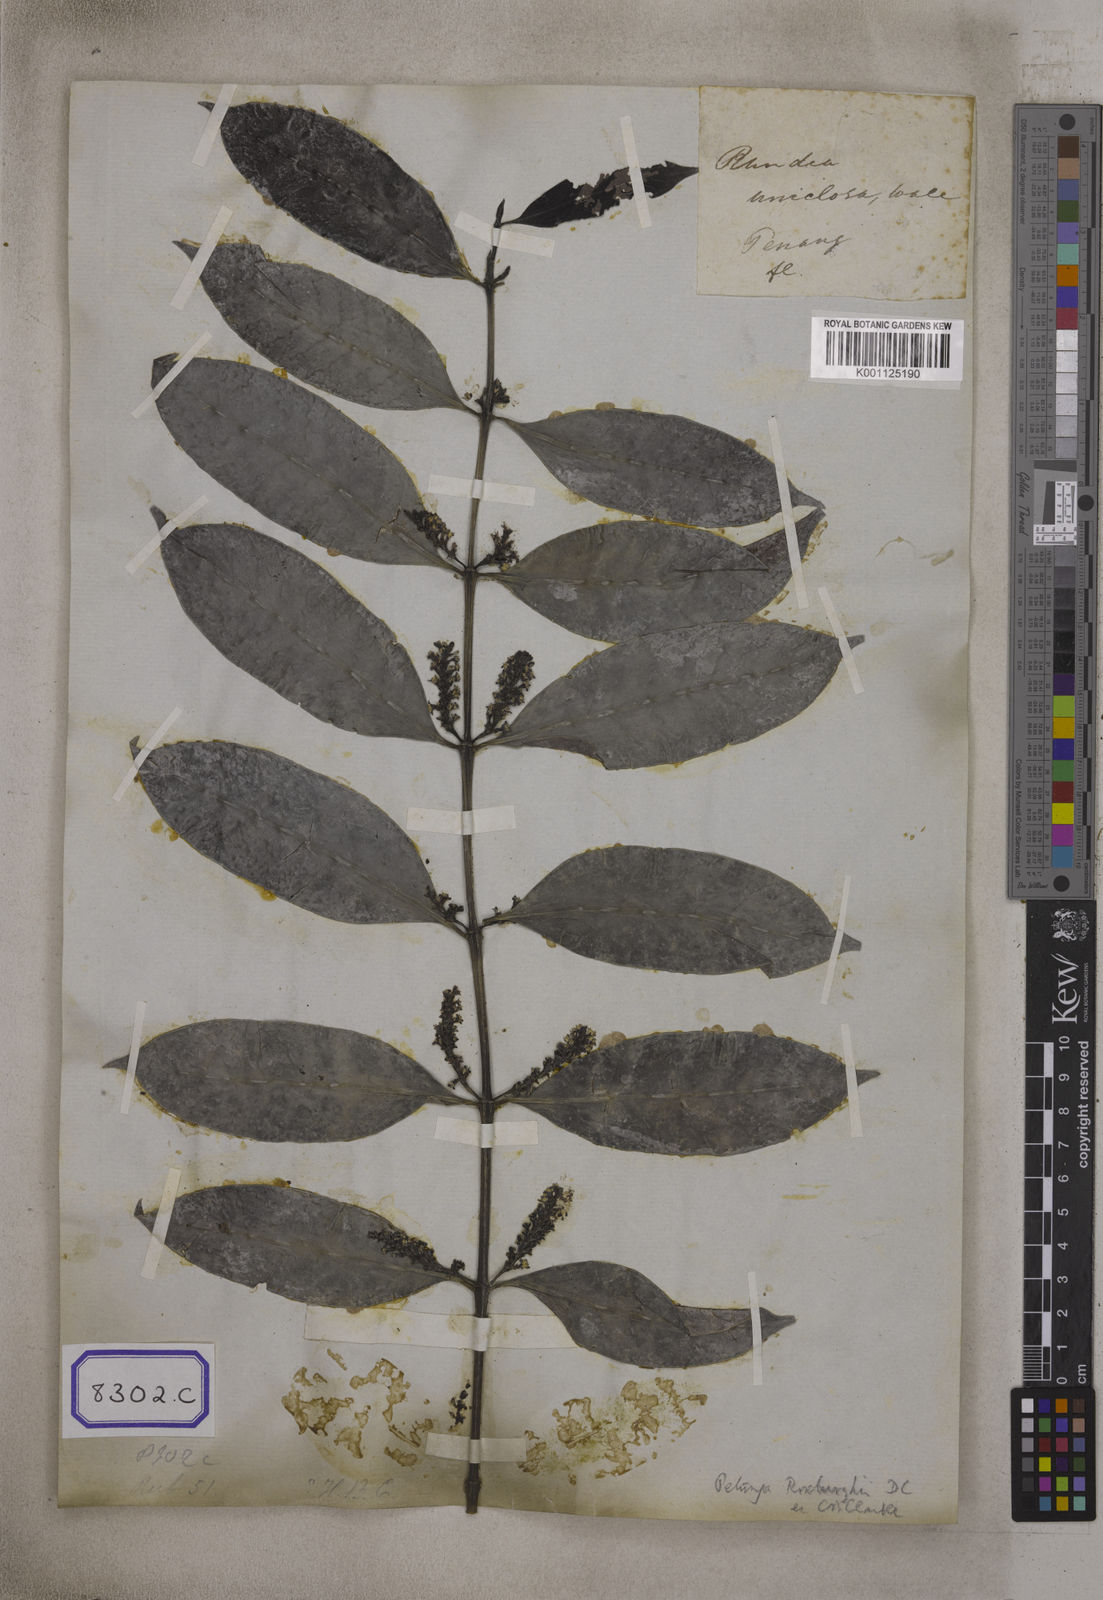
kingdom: Plantae
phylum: Tracheophyta
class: Magnoliopsida
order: Gentianales
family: Rubiaceae
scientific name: Rubiaceae
